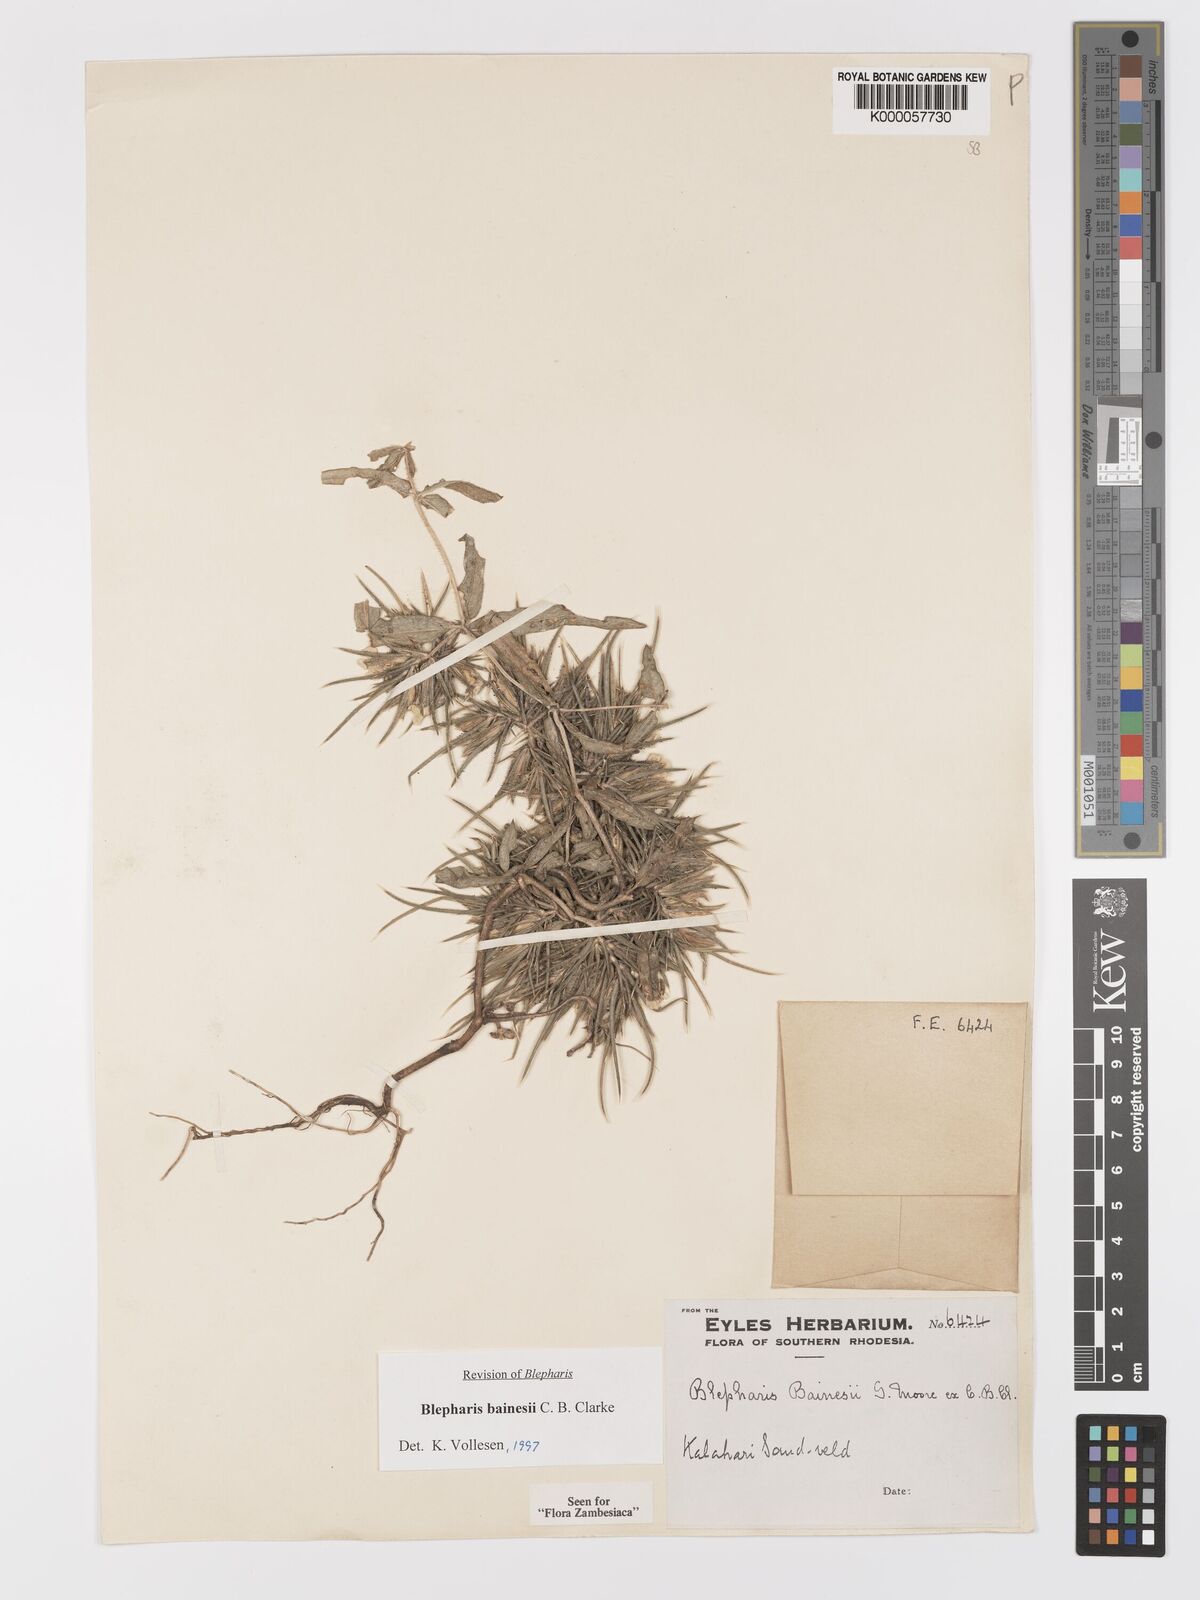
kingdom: Plantae
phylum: Tracheophyta
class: Magnoliopsida
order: Lamiales
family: Acanthaceae
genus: Blepharis
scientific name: Blepharis bainesii
